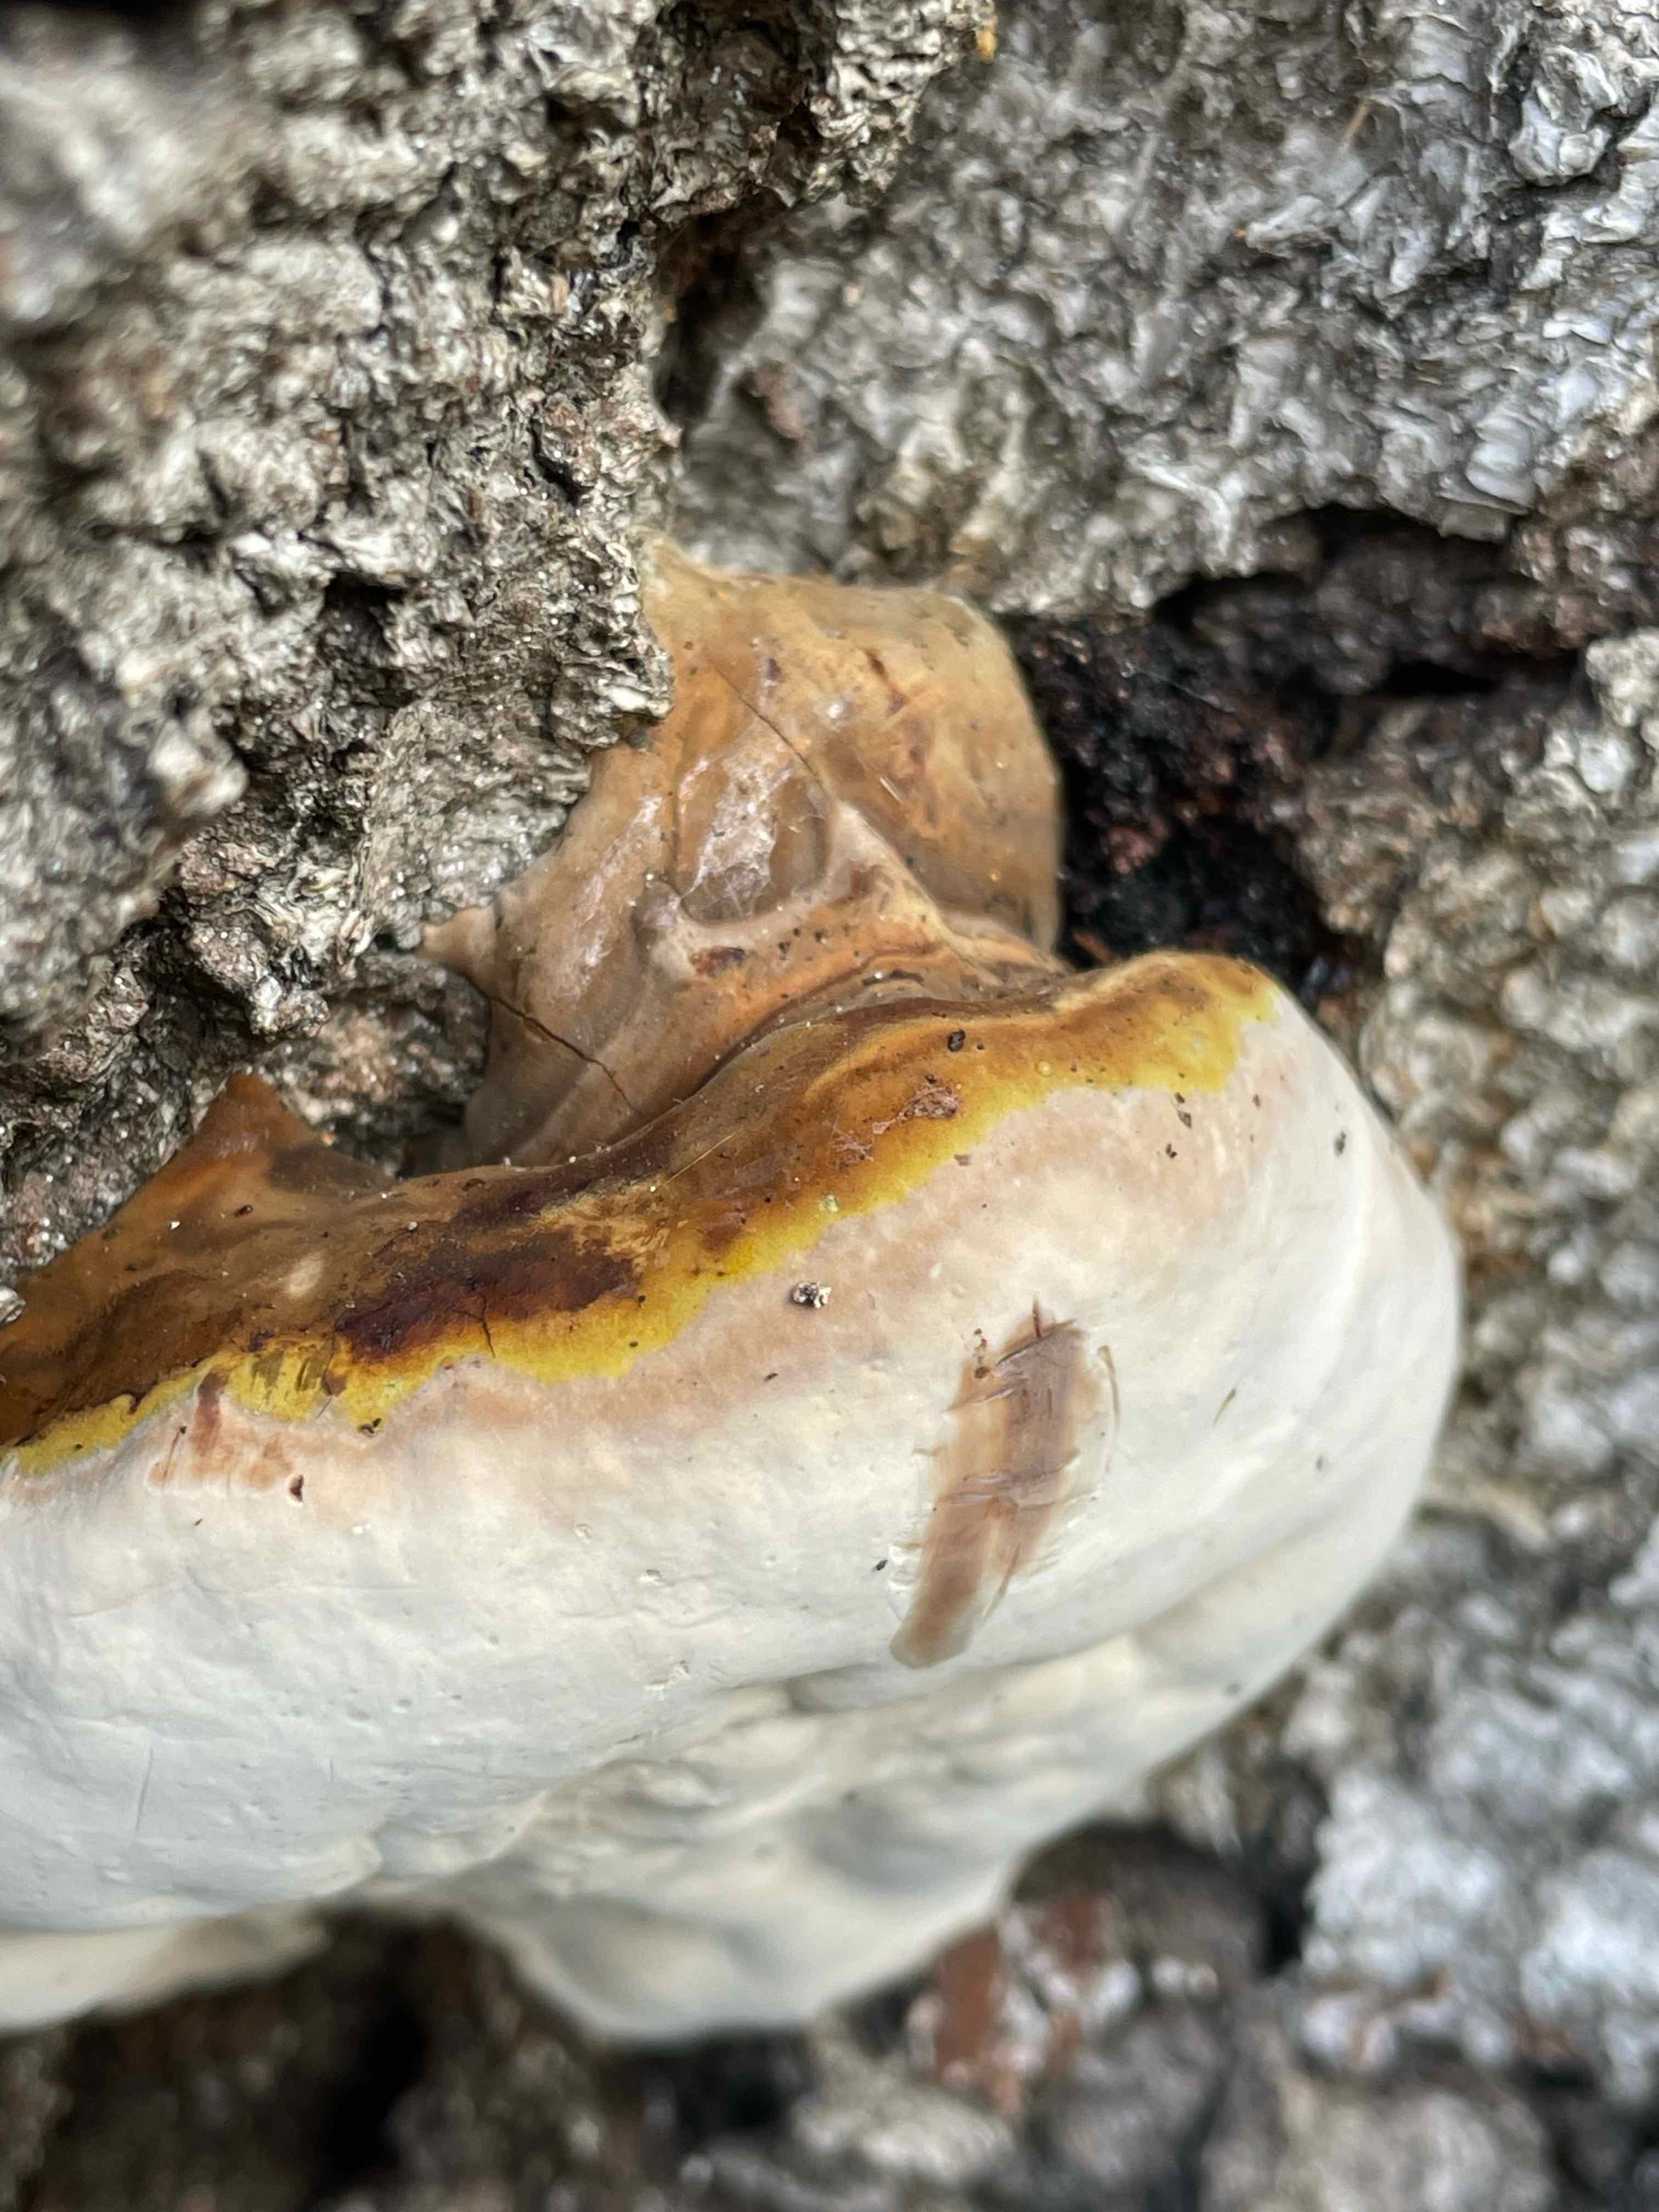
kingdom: Fungi
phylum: Basidiomycota
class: Agaricomycetes
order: Polyporales
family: Polyporaceae
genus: Ganoderma
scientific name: Ganoderma pfeifferi
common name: kobberrød lakporesvamp
